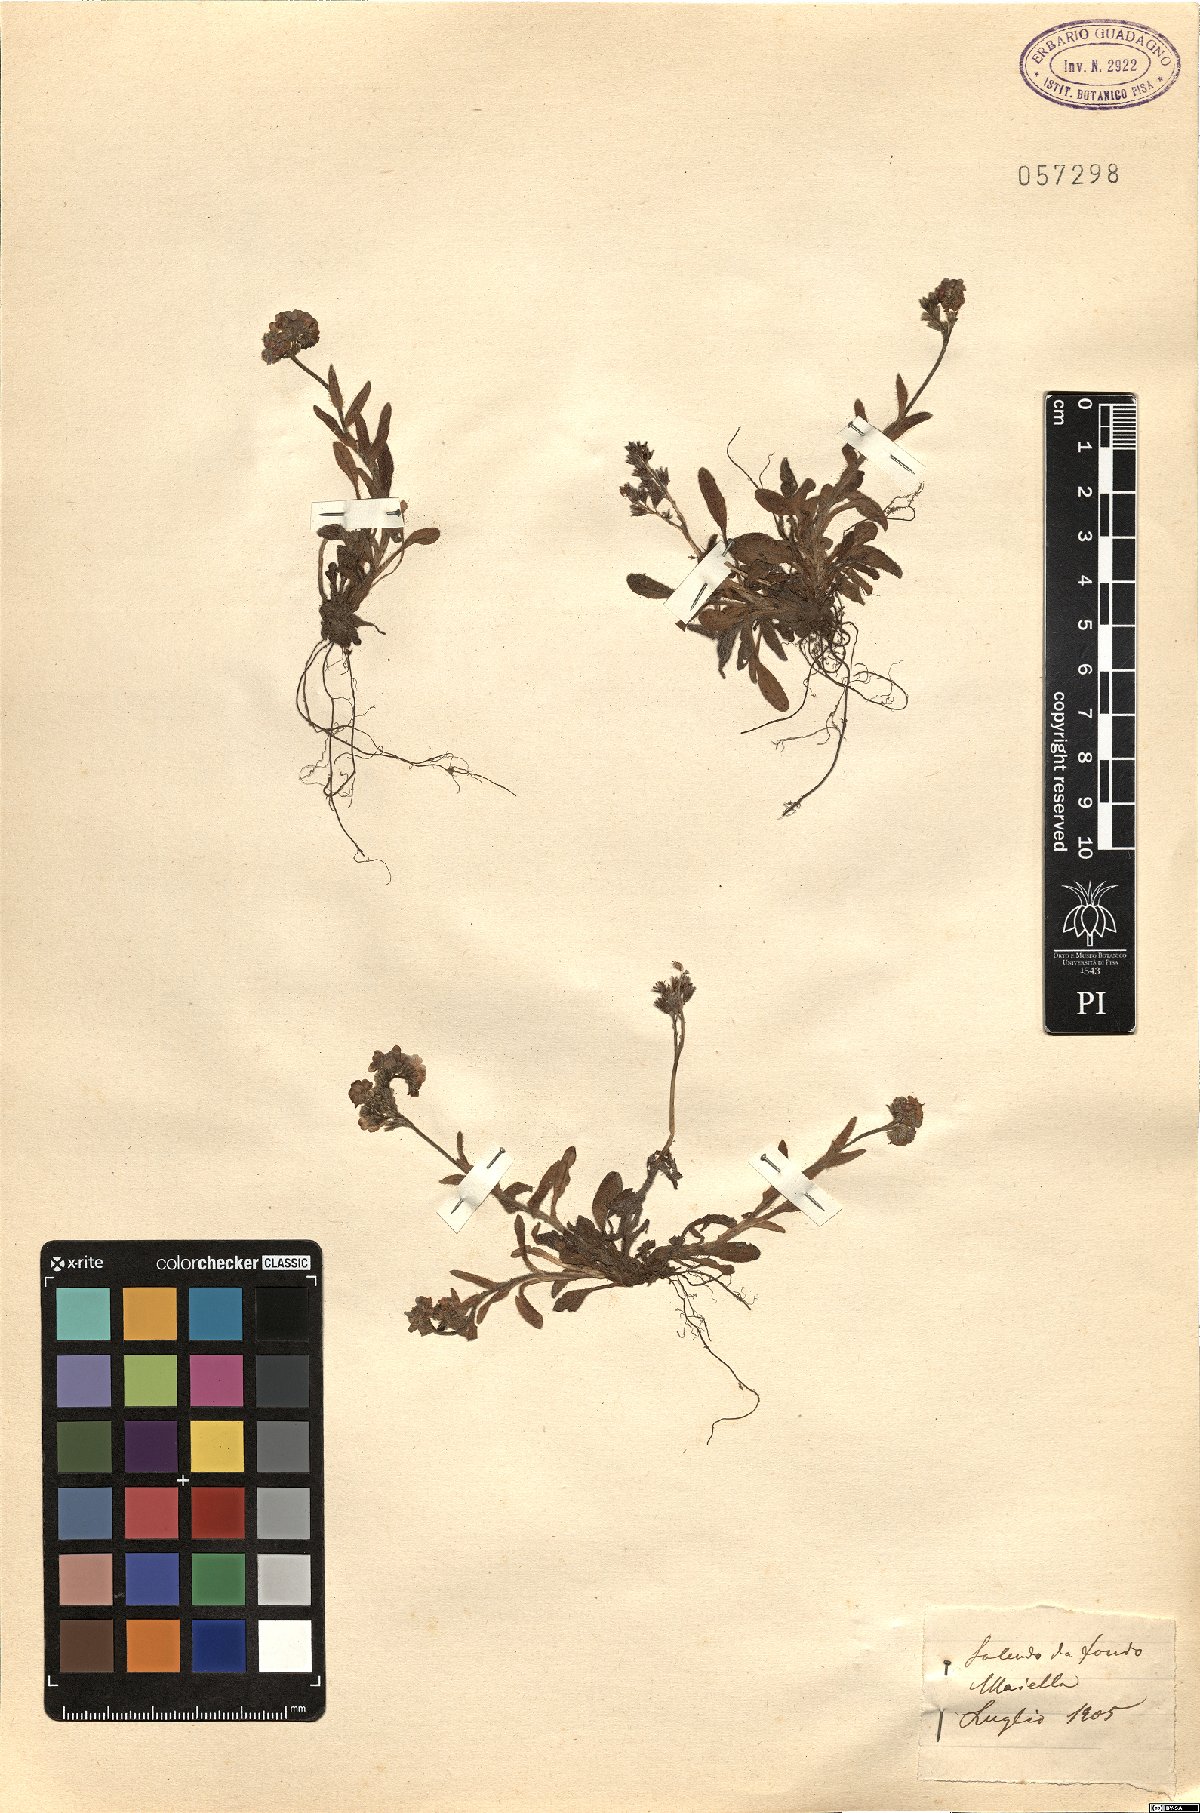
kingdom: Plantae
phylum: Tracheophyta
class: Magnoliopsida
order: Boraginales
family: Boraginaceae
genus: Myosotis
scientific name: Myosotis
